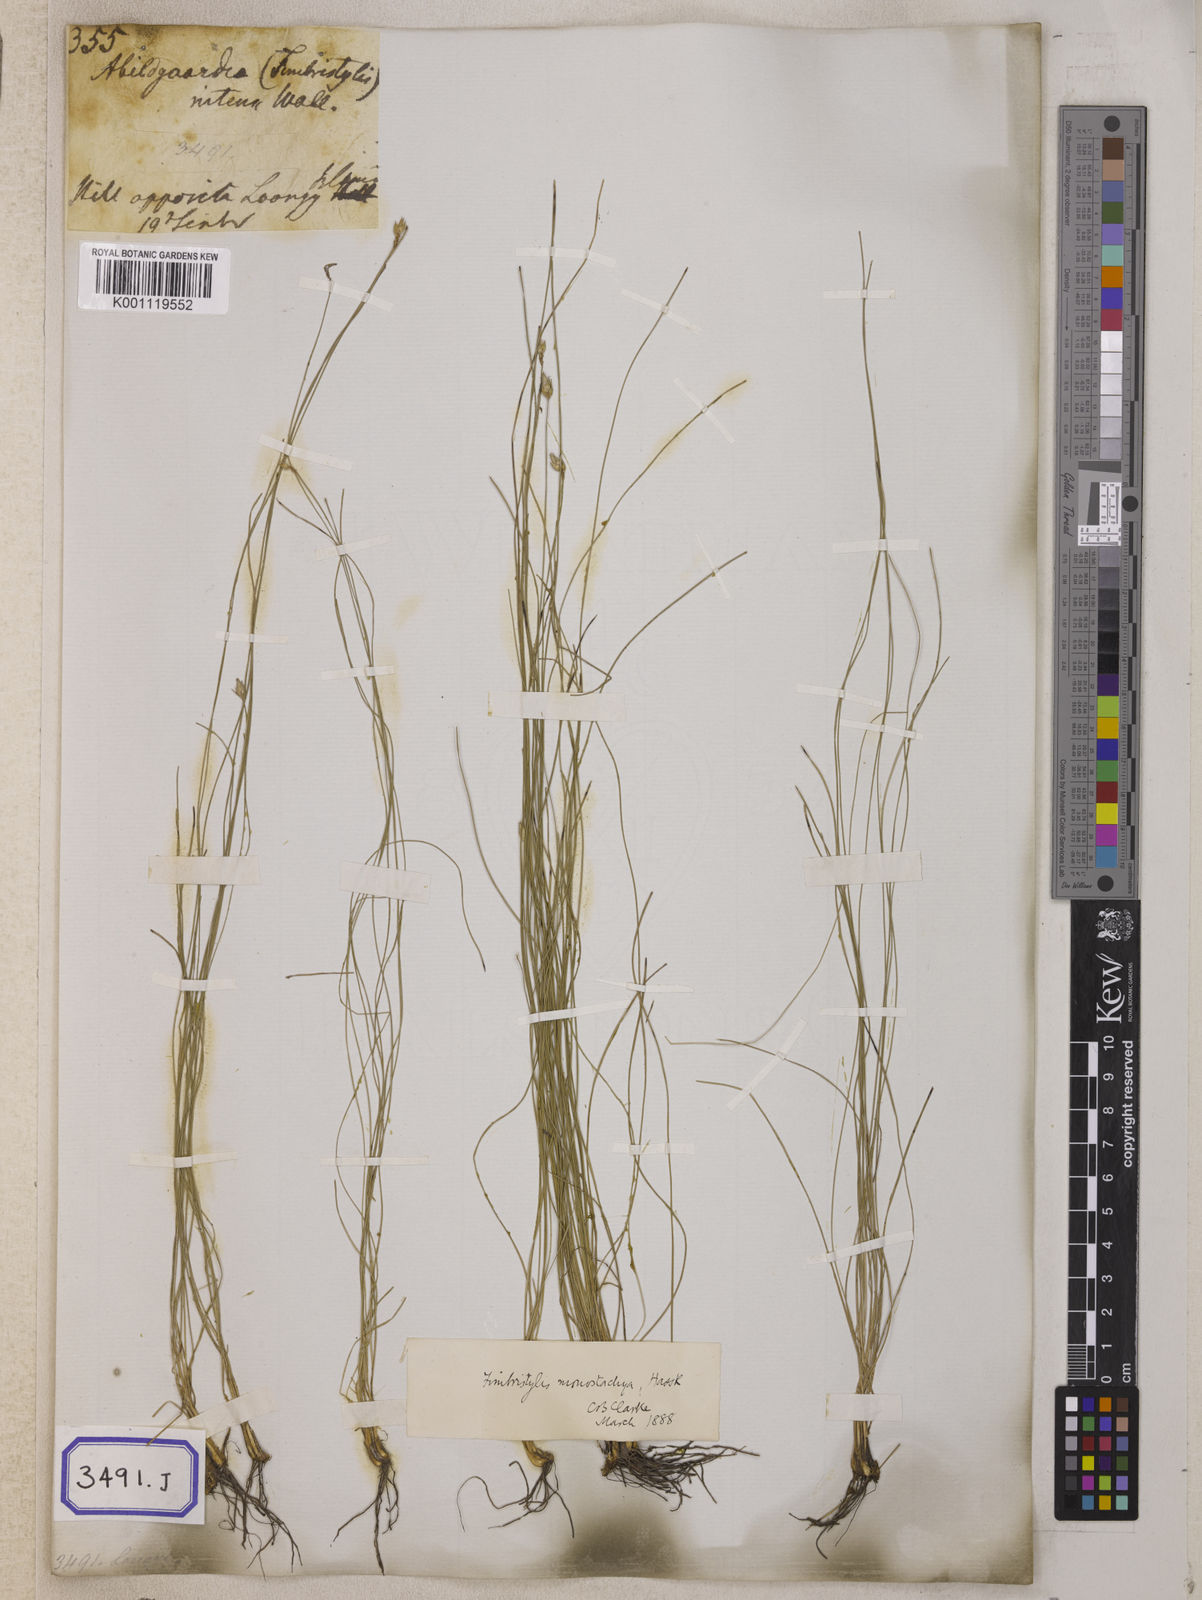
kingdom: Plantae
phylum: Tracheophyta
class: Liliopsida
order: Poales
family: Cyperaceae
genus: Abildgaardia
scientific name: Abildgaardia
